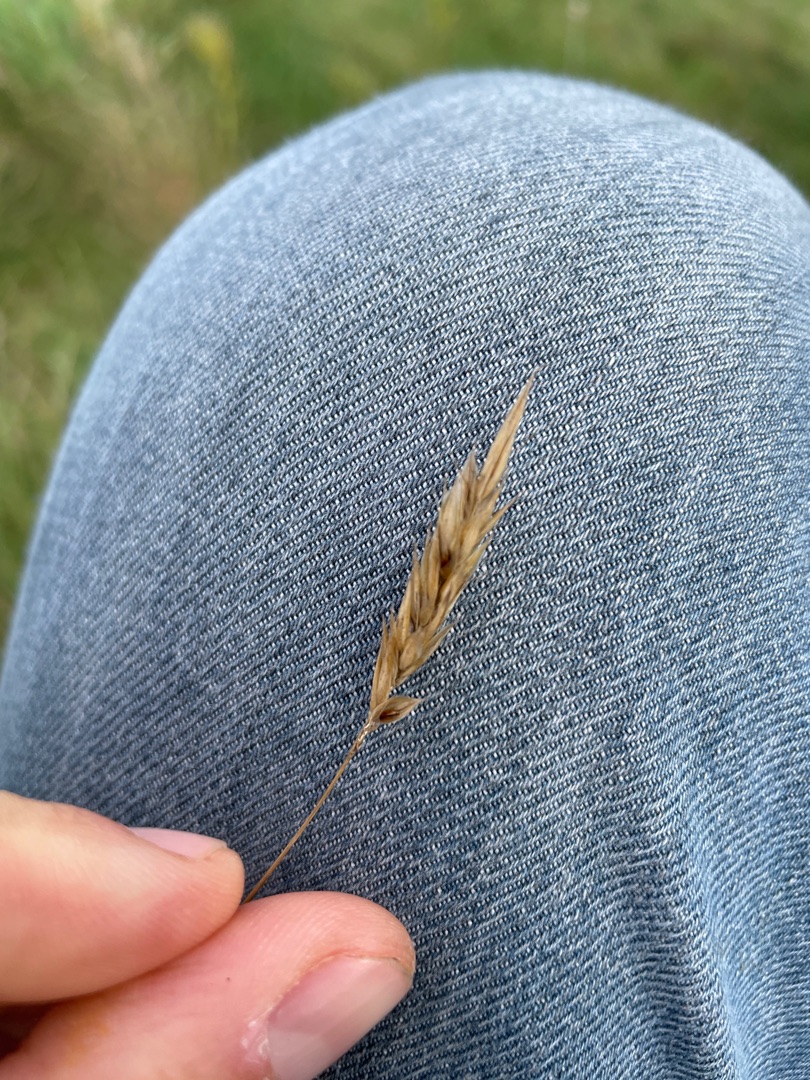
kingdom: Plantae
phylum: Tracheophyta
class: Liliopsida
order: Poales
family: Poaceae
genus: Anthoxanthum
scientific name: Anthoxanthum odoratum
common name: Vellugtende gulaks
